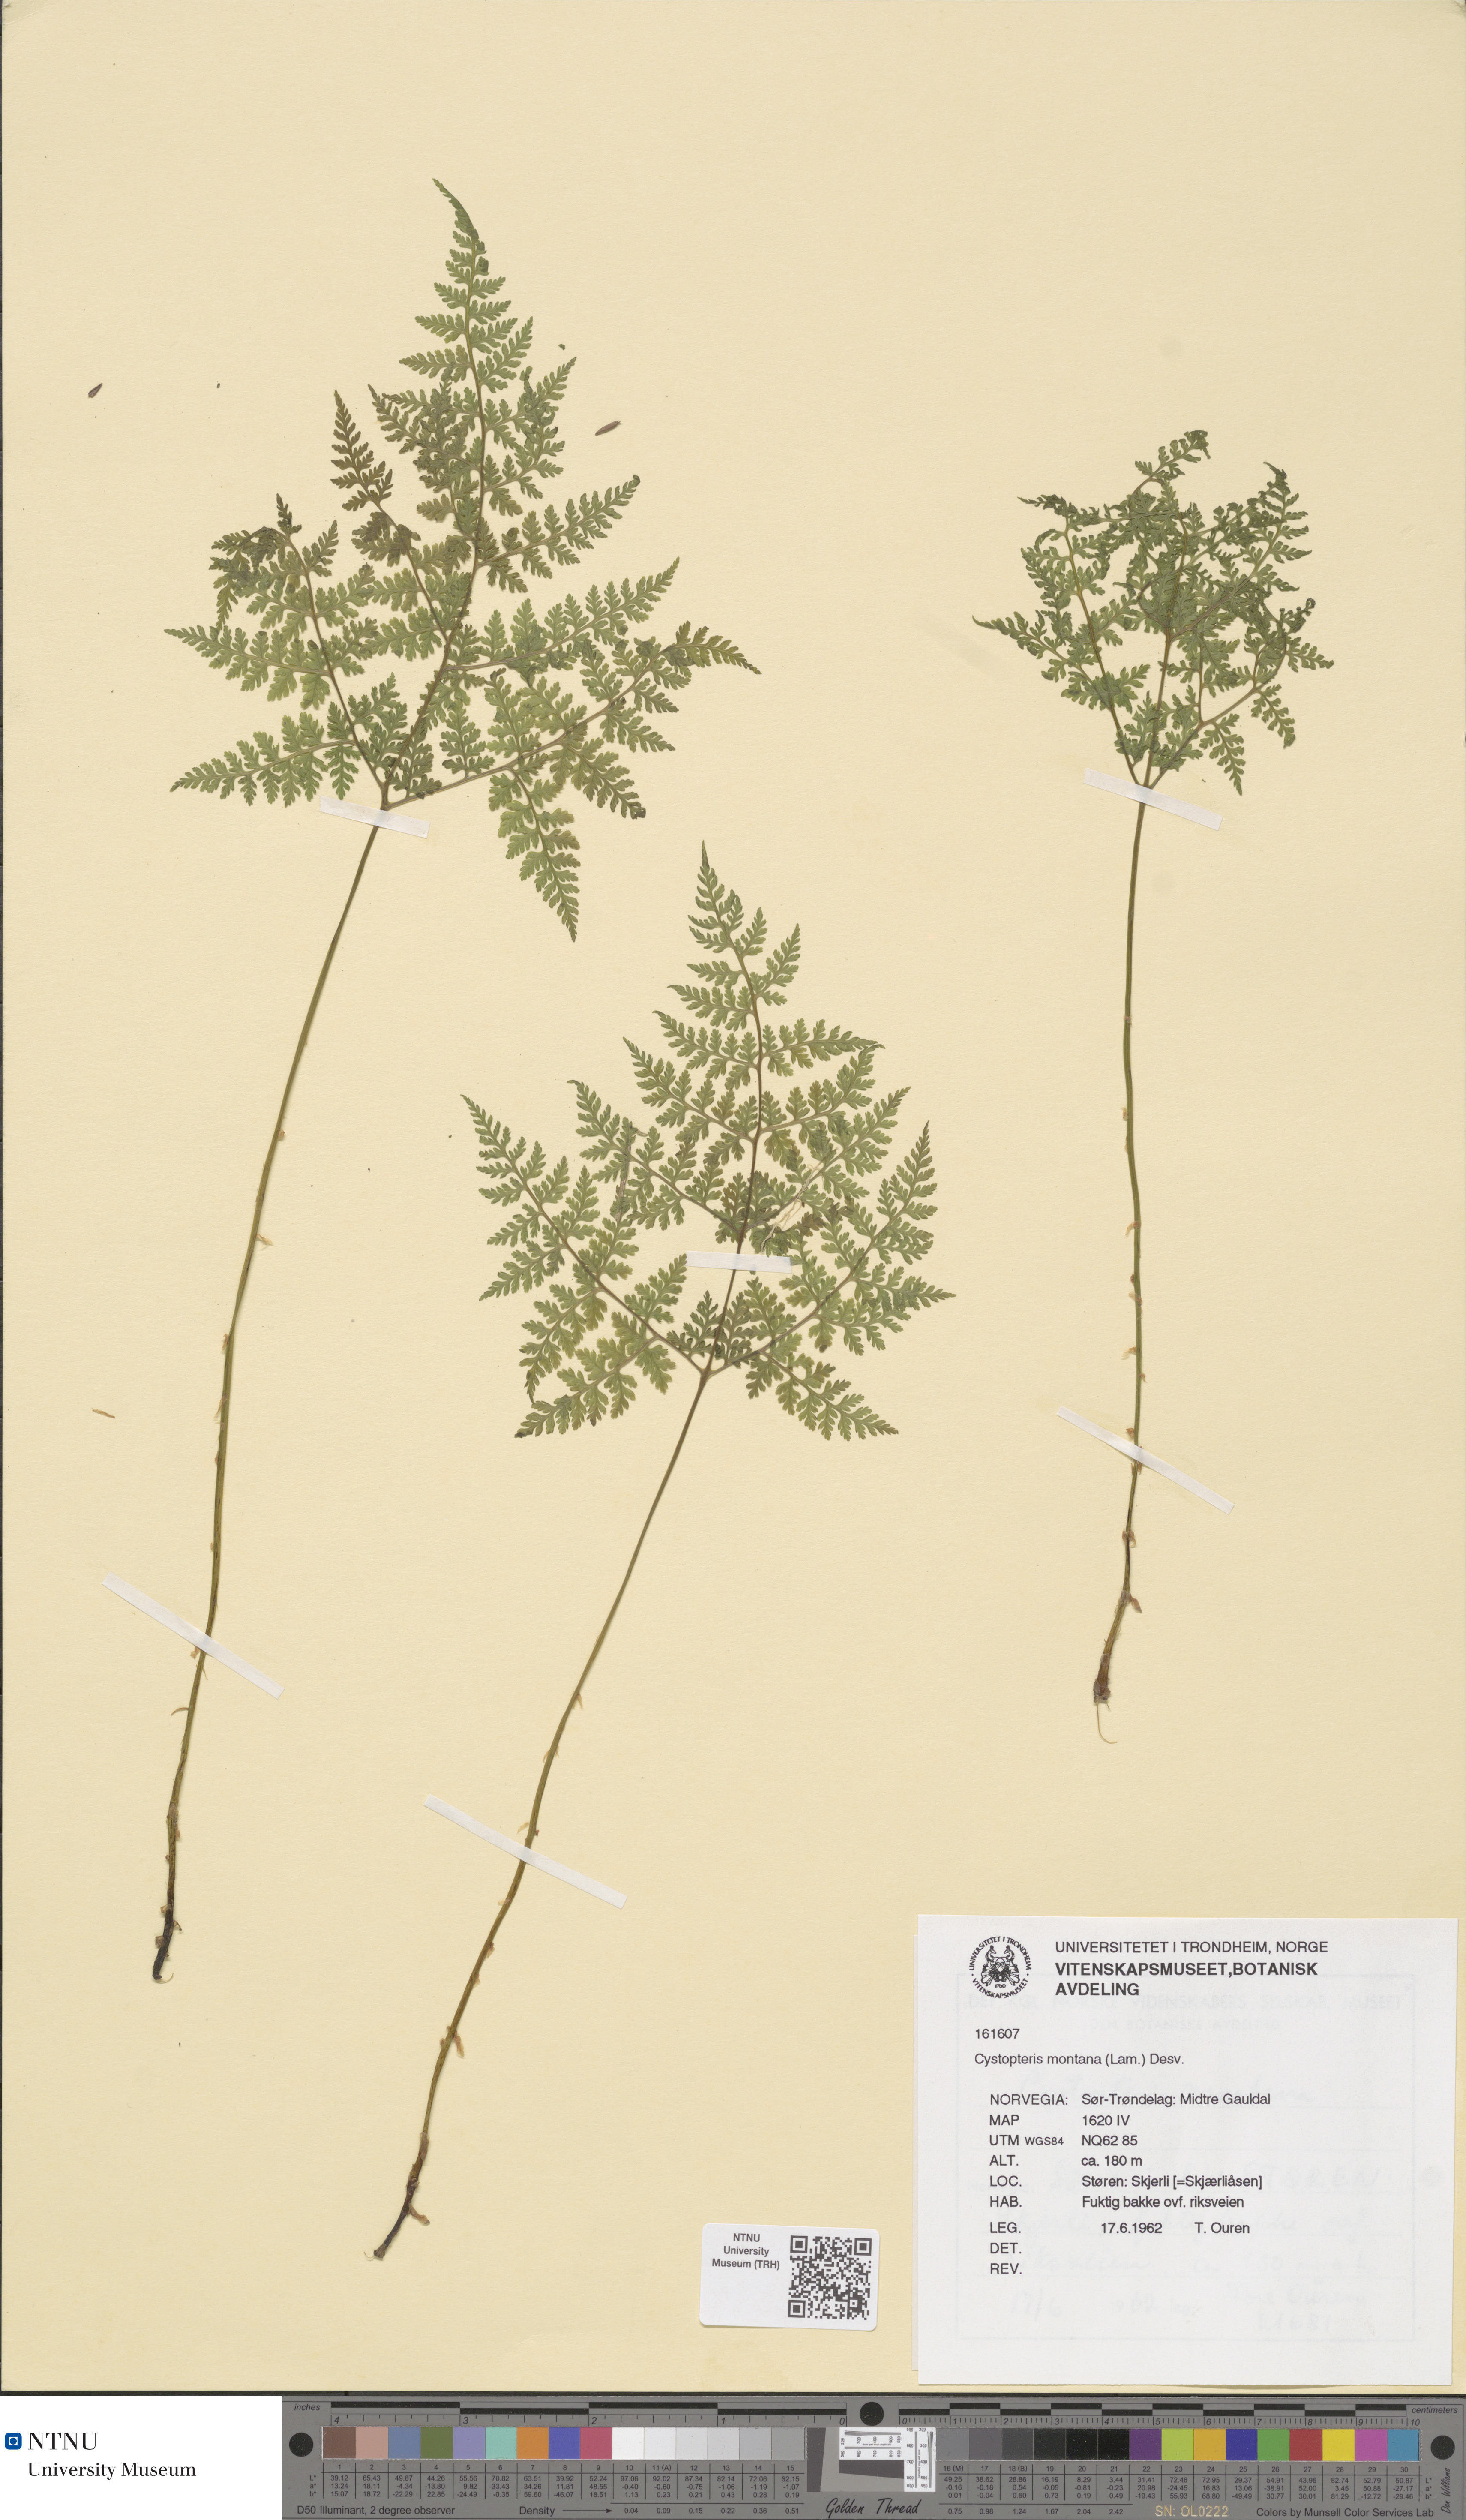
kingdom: Plantae
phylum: Tracheophyta
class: Polypodiopsida
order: Polypodiales
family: Cystopteridaceae
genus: Cystopteris
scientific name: Cystopteris montana
